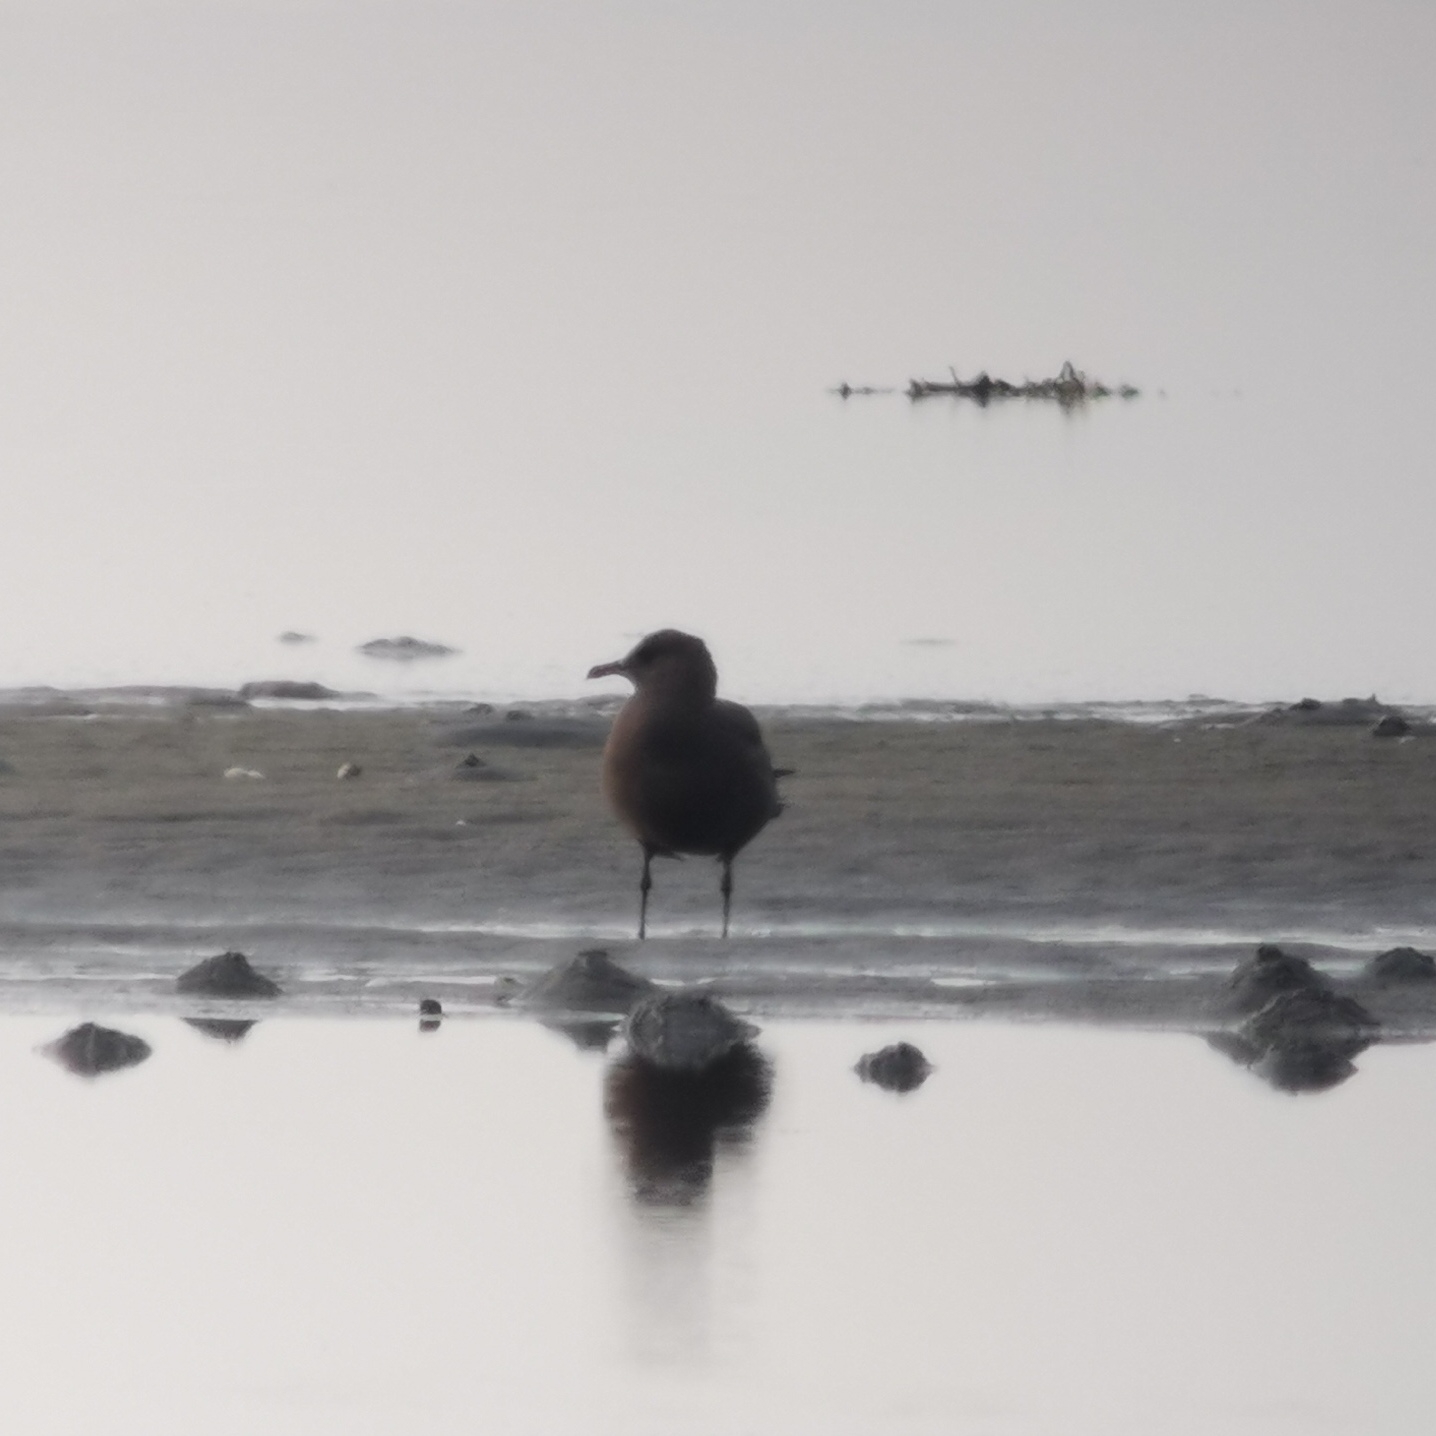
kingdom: Animalia
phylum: Chordata
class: Aves
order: Charadriiformes
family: Stercorariidae
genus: Stercorarius
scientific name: Stercorarius parasiticus
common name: Almindelig kjove
